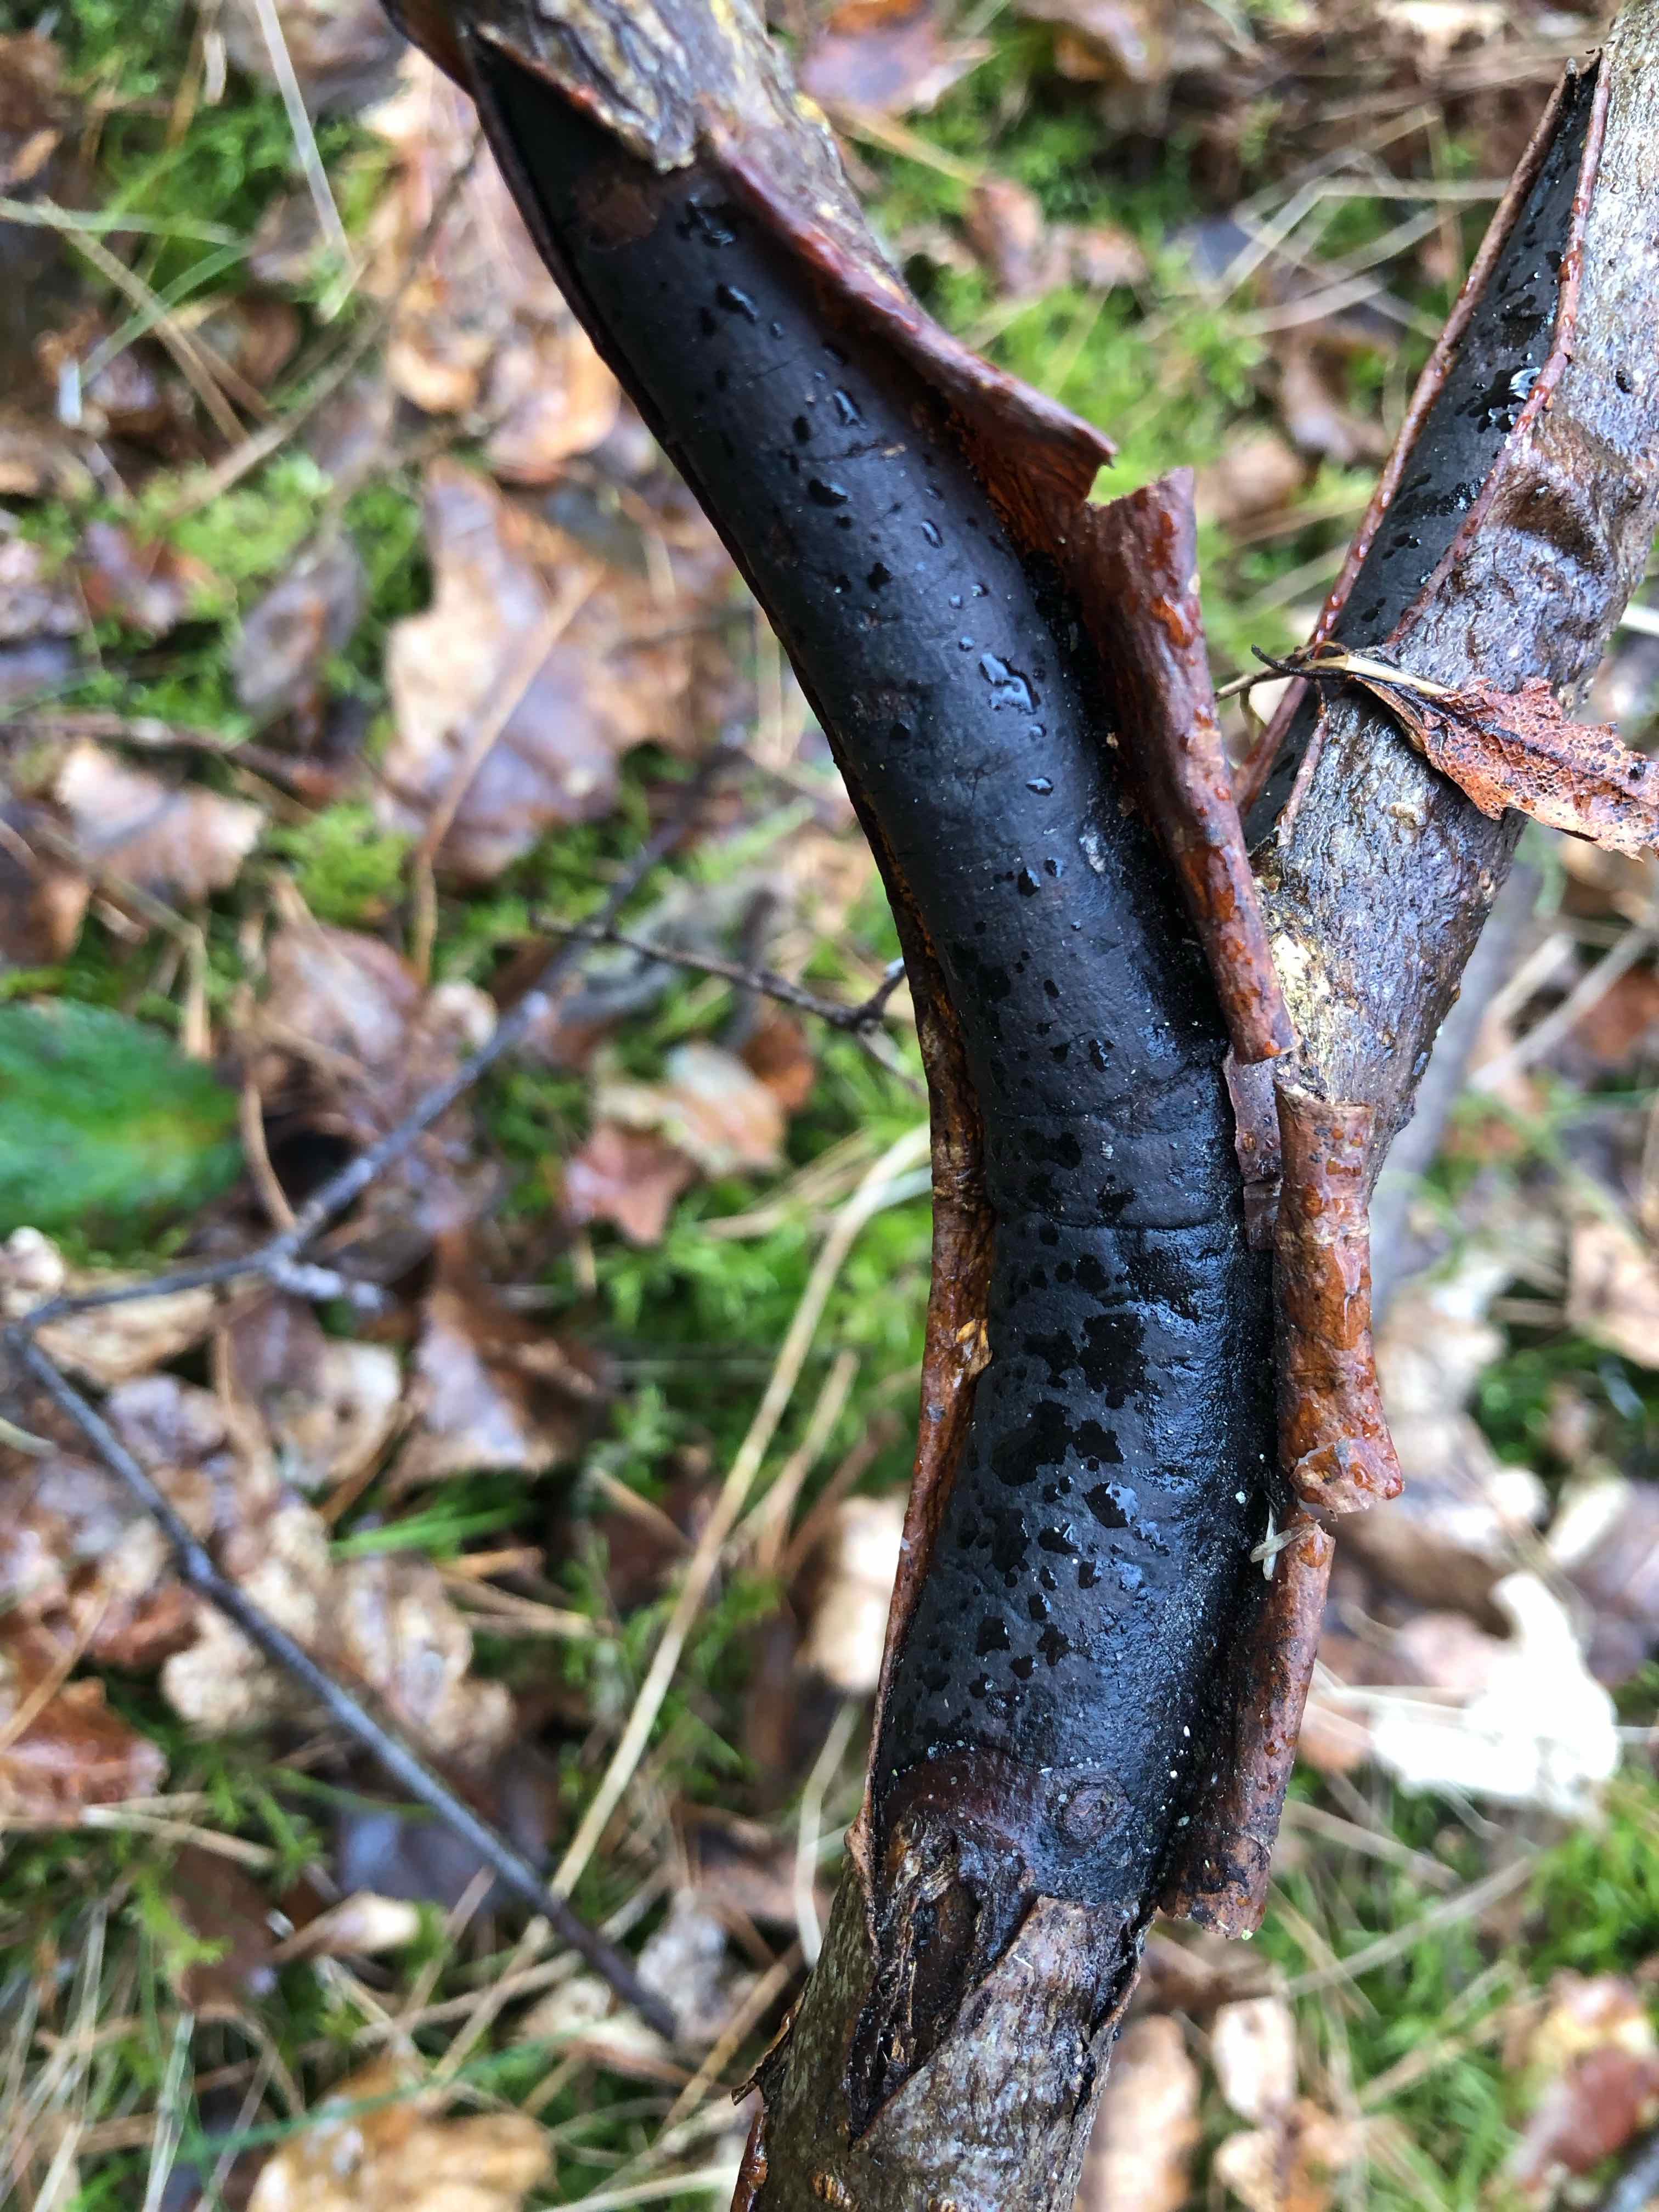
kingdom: Fungi
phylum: Ascomycota
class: Sordariomycetes
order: Xylariales
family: Diatrypaceae
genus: Diatrype
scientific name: Diatrype decorticata
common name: barksprænger-kulskorpe
